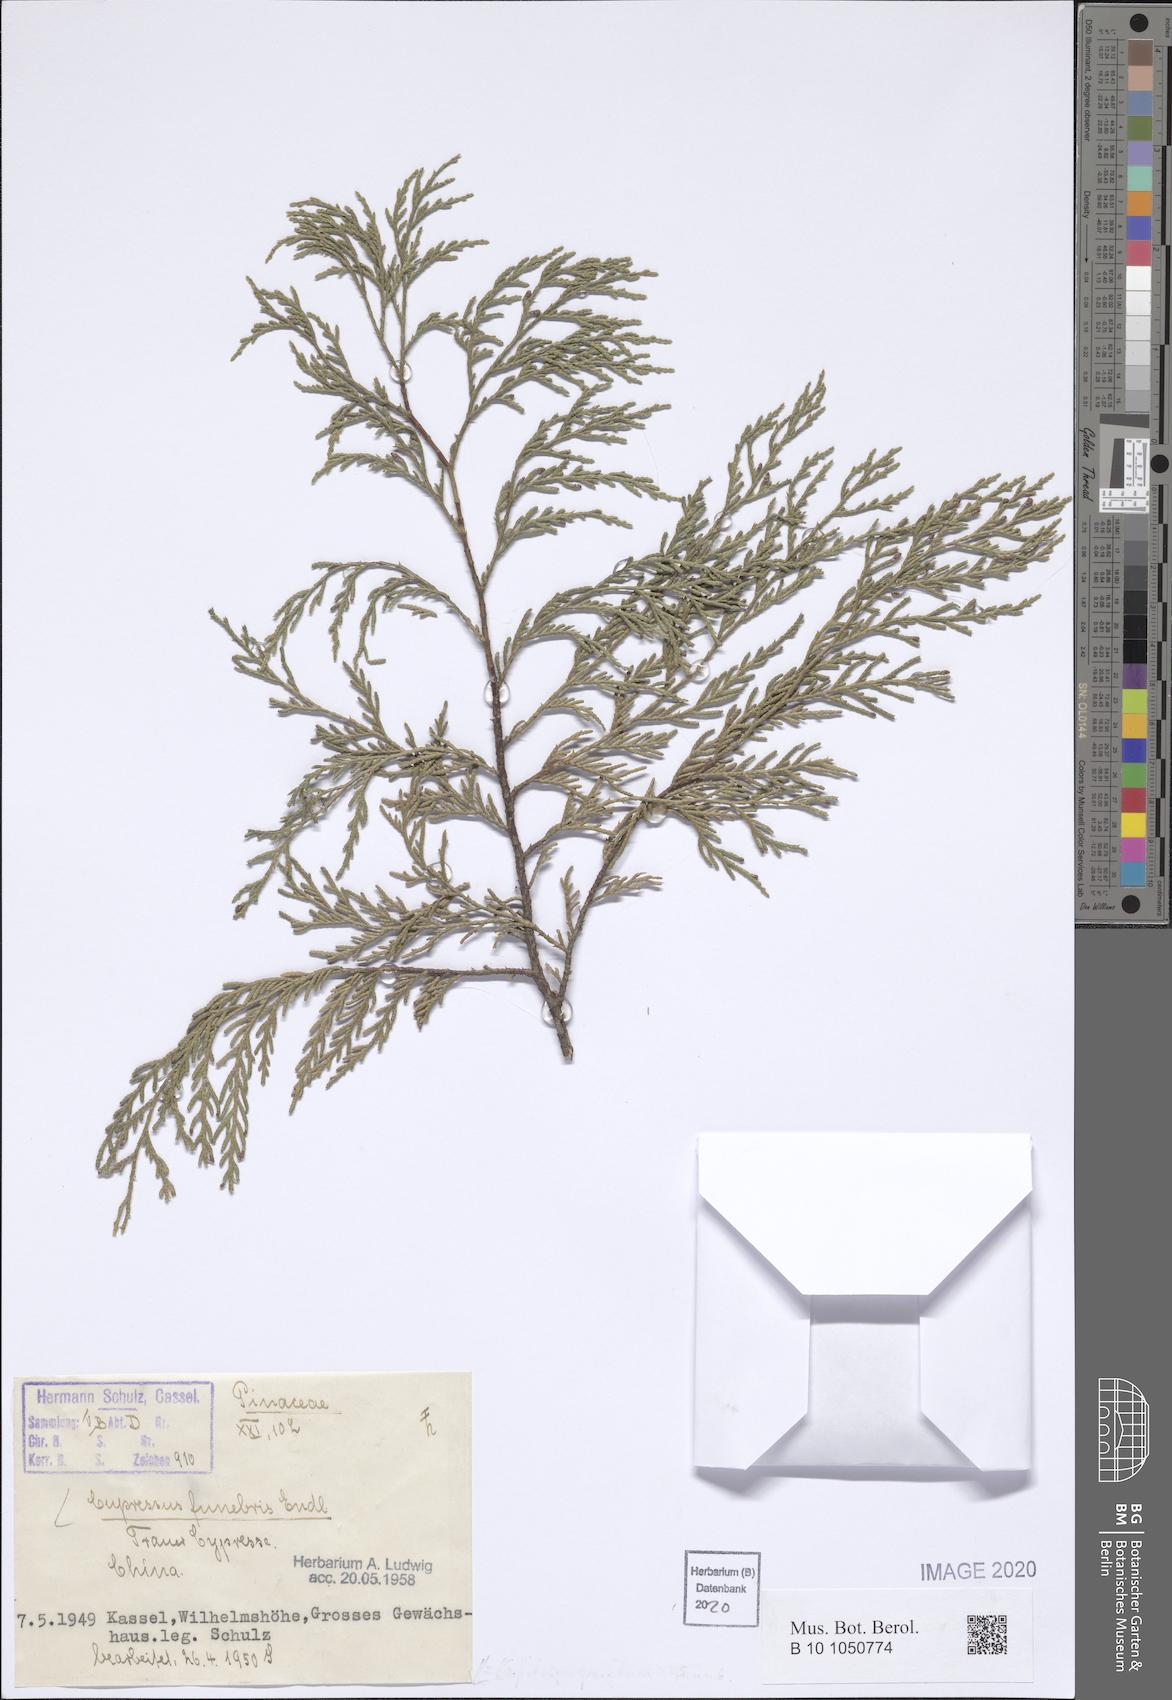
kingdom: Plantae
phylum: Tracheophyta
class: Pinopsida
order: Pinales
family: Cupressaceae
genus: Cupressus
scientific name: Cupressus funebris
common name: Chinese weeping cypress
